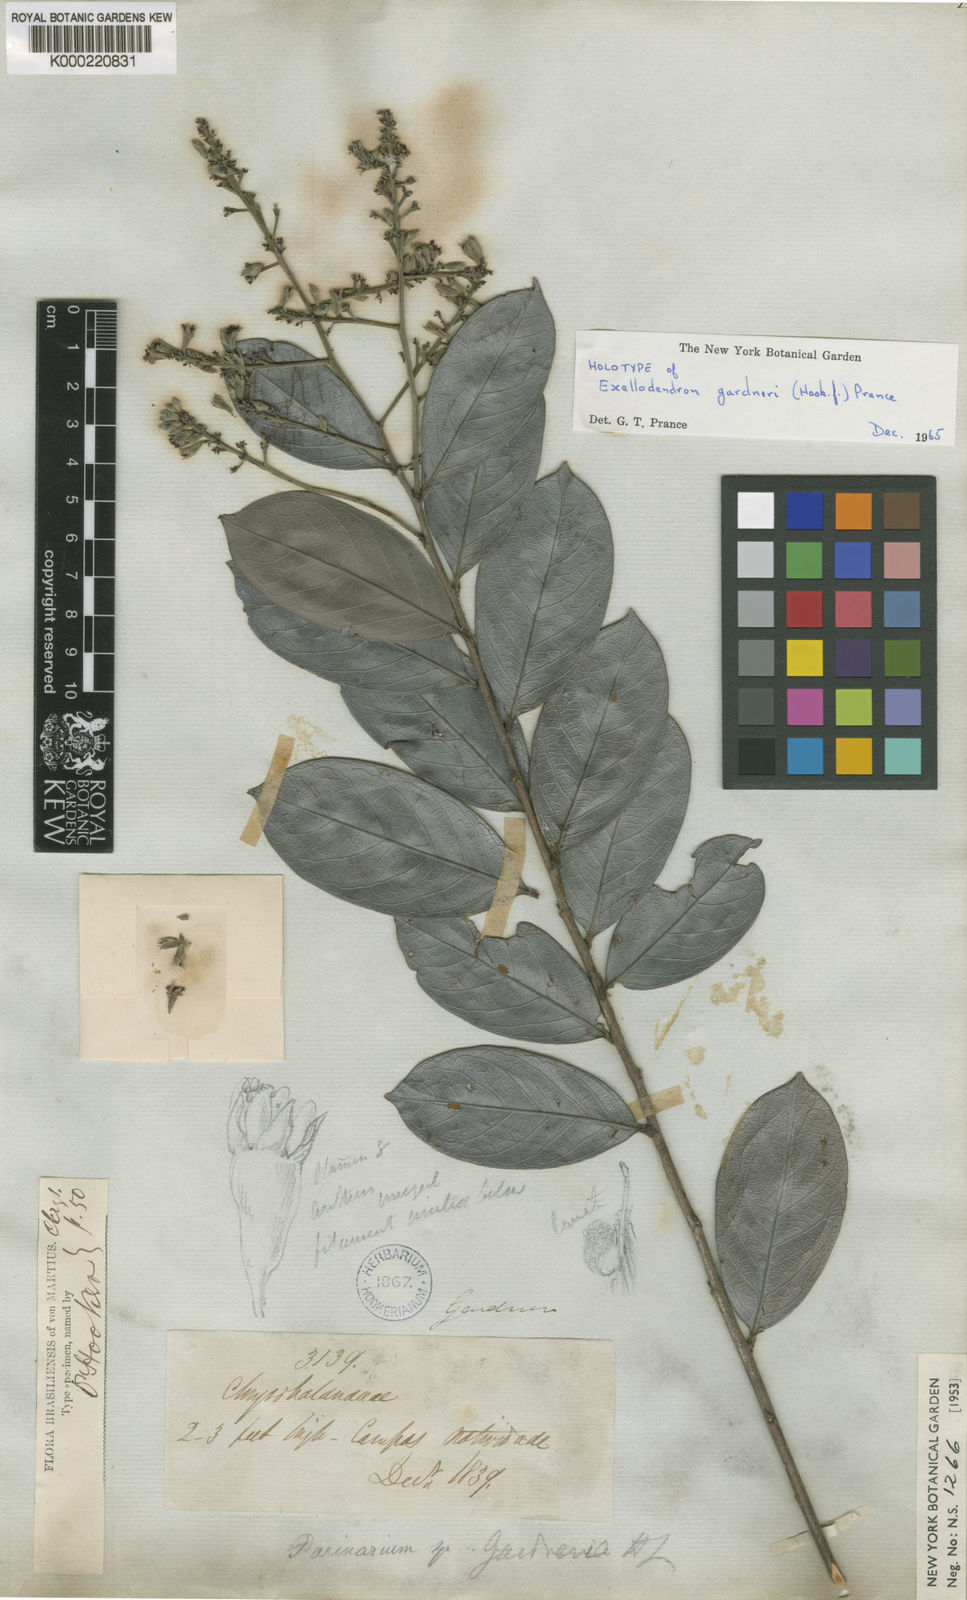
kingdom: Plantae
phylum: Tracheophyta
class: Magnoliopsida
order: Malpighiales
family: Chrysobalanaceae
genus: Exellodendron
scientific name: Exellodendron gardneri
